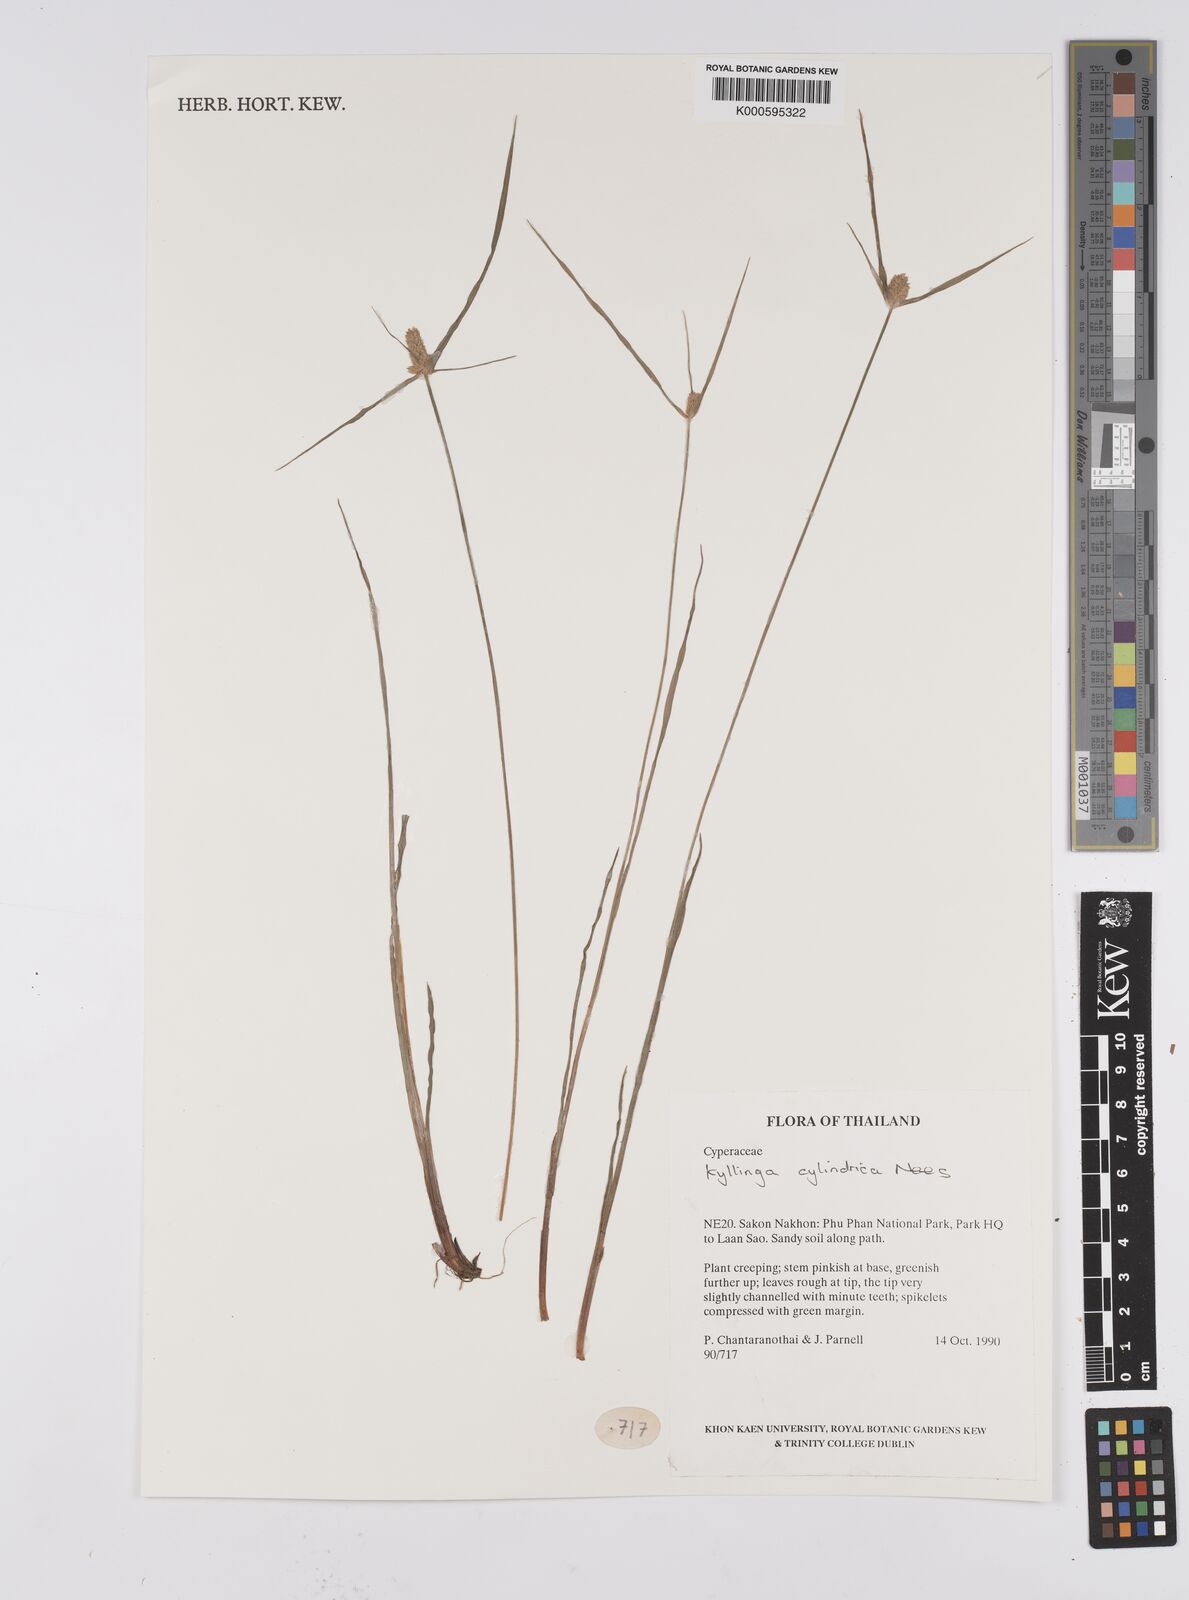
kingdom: Plantae
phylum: Tracheophyta
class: Liliopsida
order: Poales
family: Cyperaceae
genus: Cyperus
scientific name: Cyperus sesquiflorus
